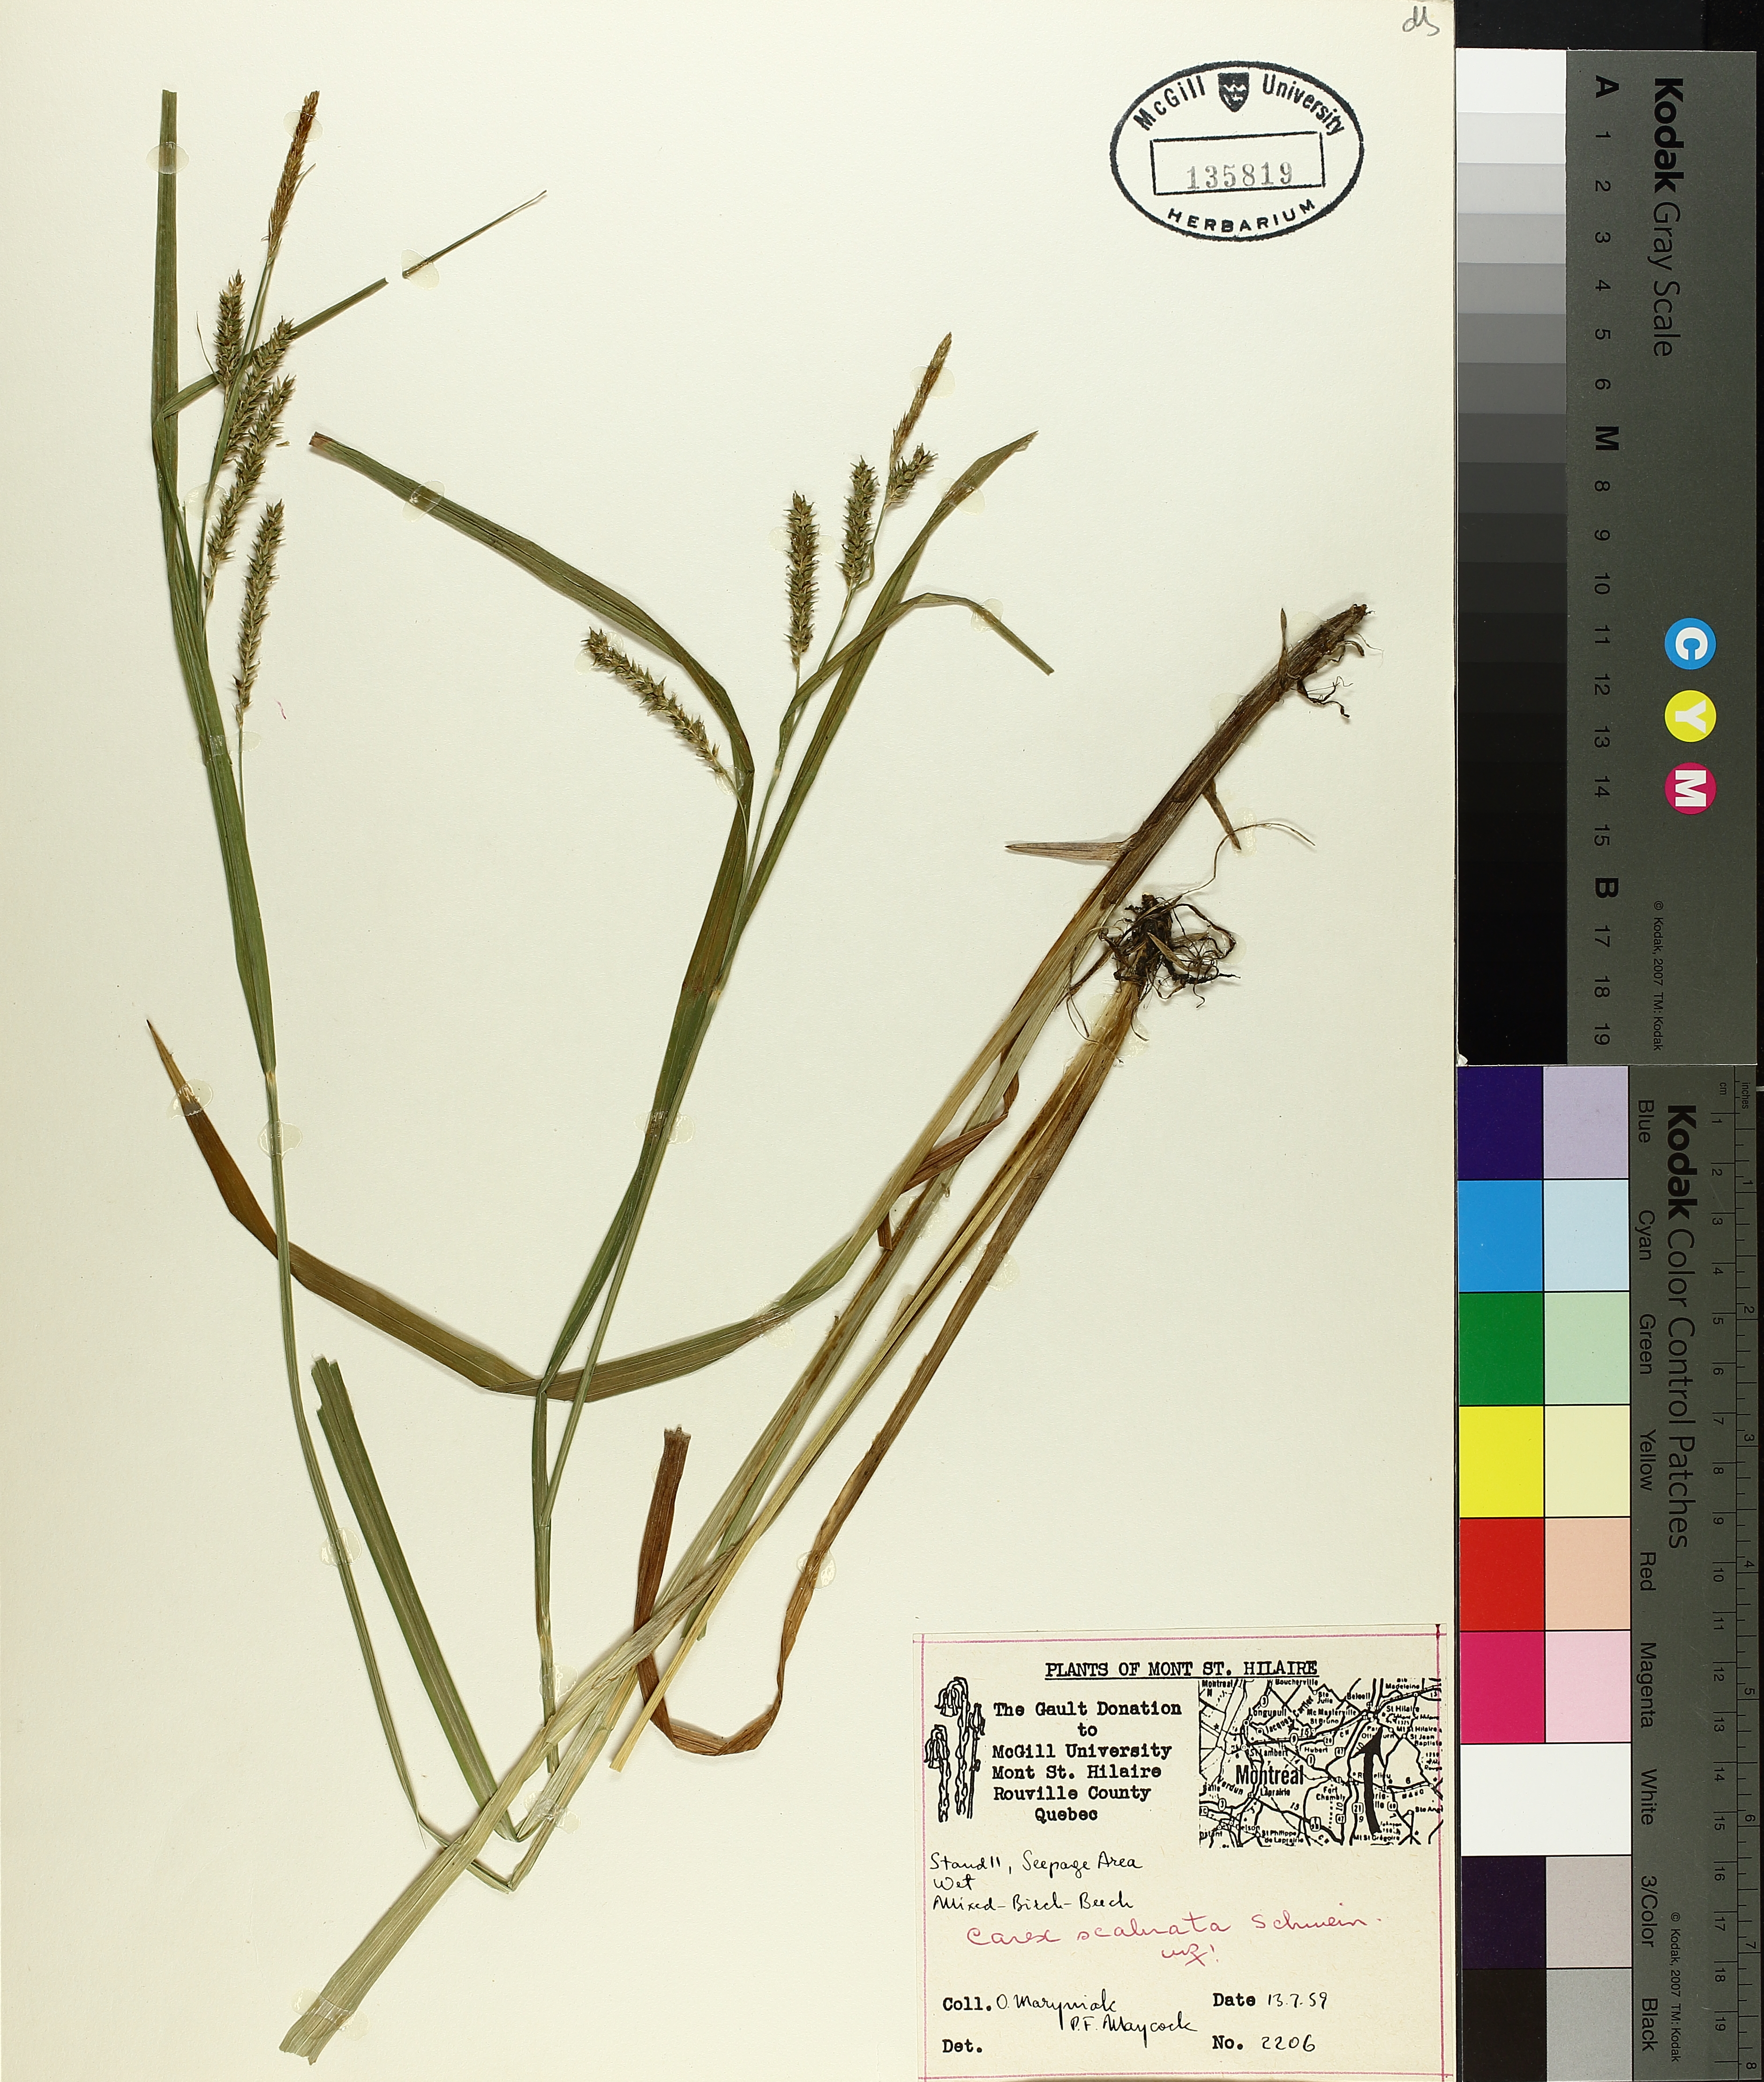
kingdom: Plantae
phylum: Tracheophyta
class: Liliopsida
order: Poales
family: Cyperaceae
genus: Carex
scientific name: Carex scabrata
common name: Eastern rough sedge
